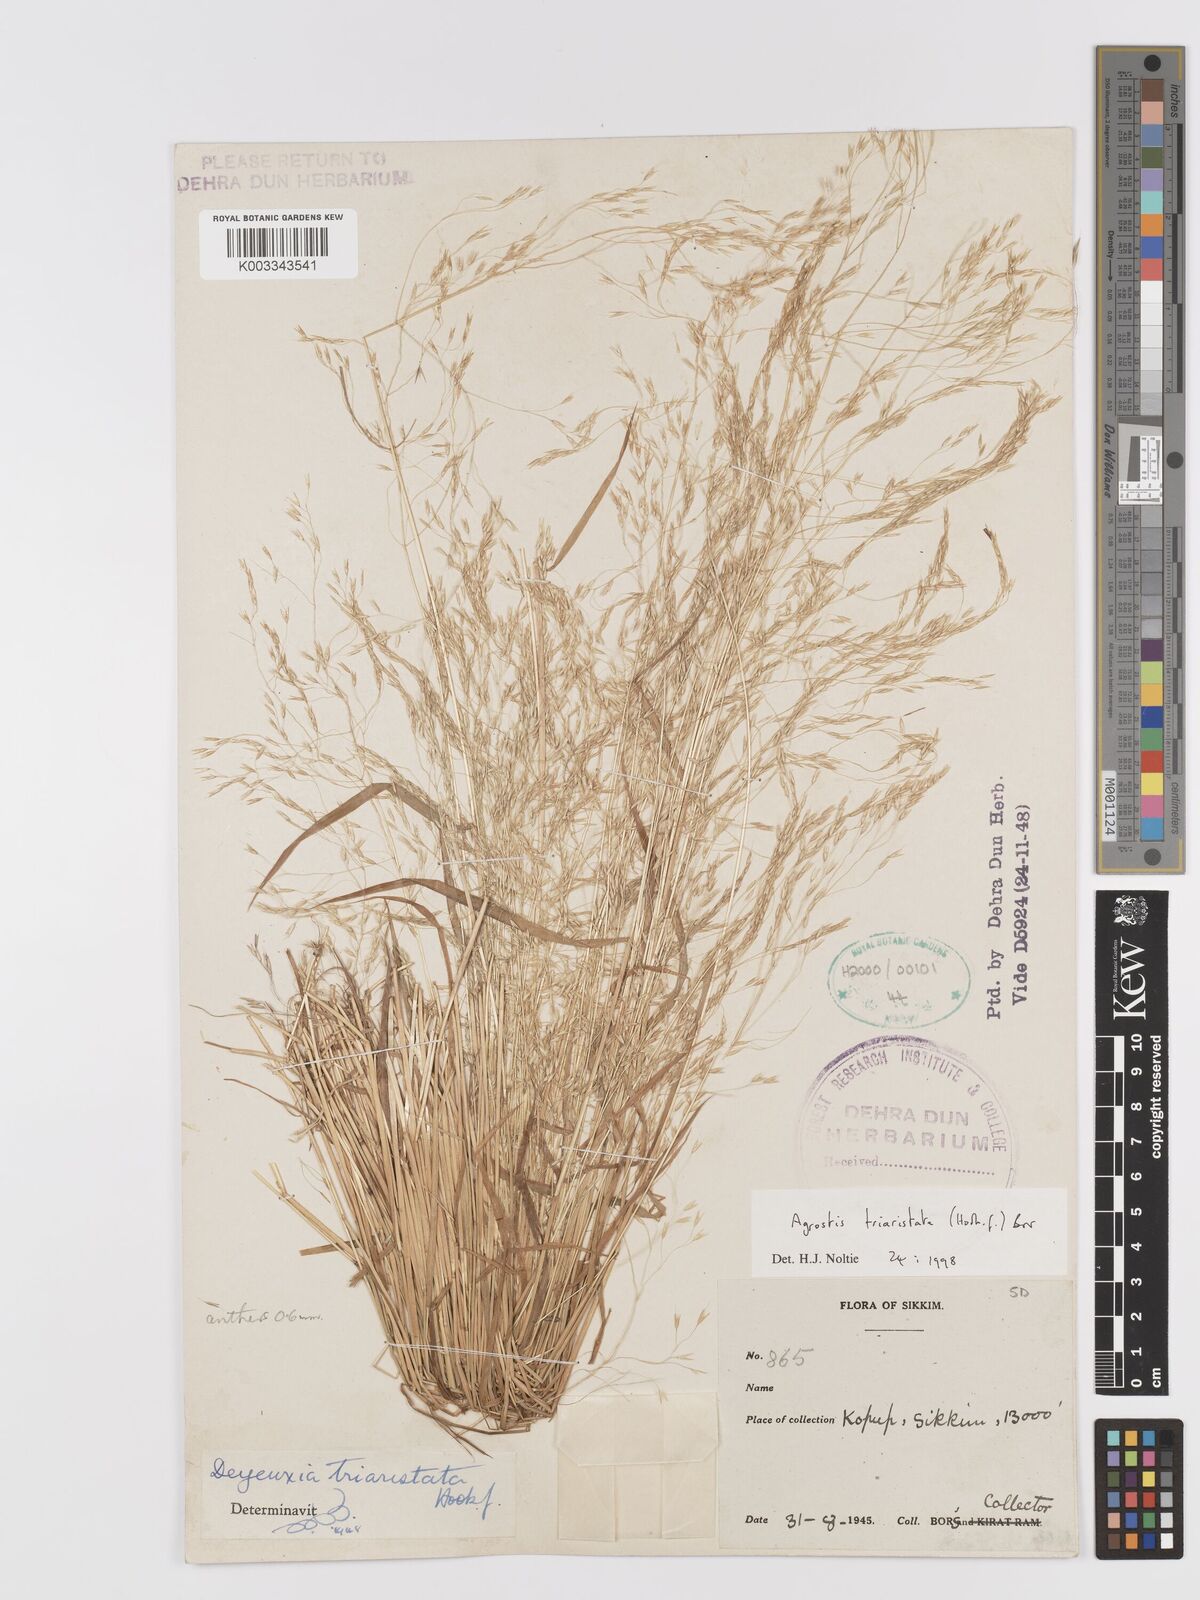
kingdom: Plantae
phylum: Tracheophyta
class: Liliopsida
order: Poales
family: Poaceae
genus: Agrostis
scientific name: Agrostis
